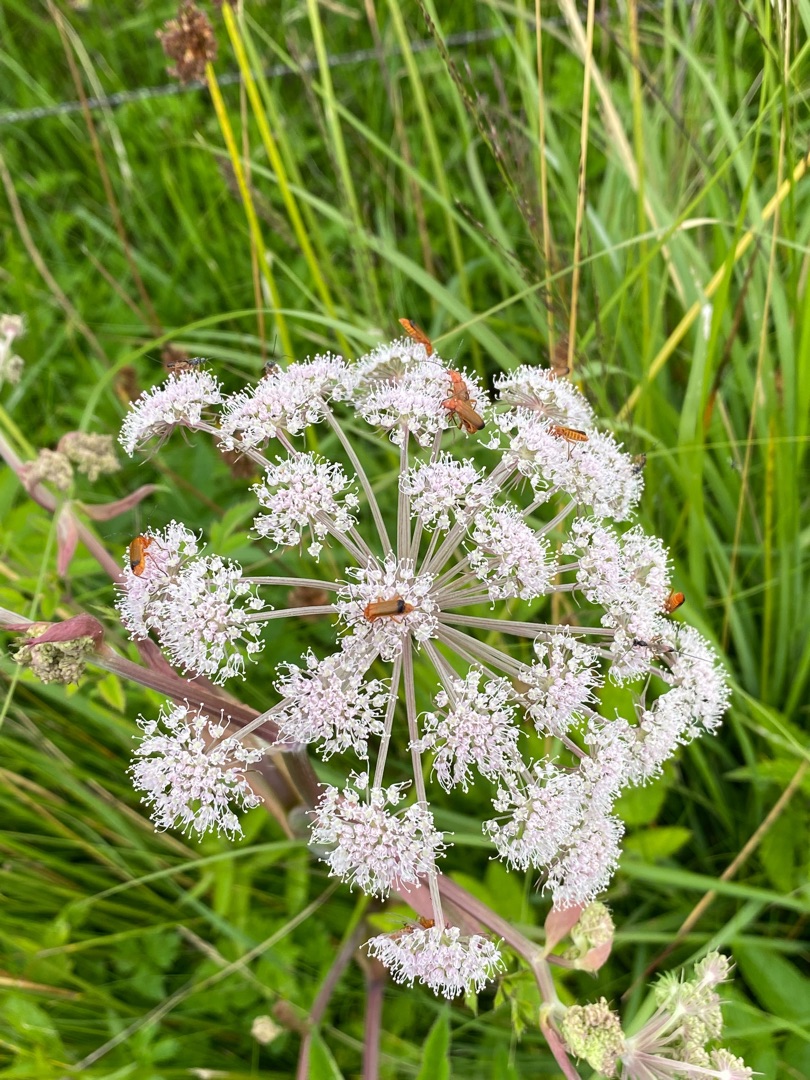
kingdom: Plantae
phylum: Tracheophyta
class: Magnoliopsida
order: Apiales
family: Apiaceae
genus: Angelica
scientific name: Angelica sylvestris
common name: Angelik
